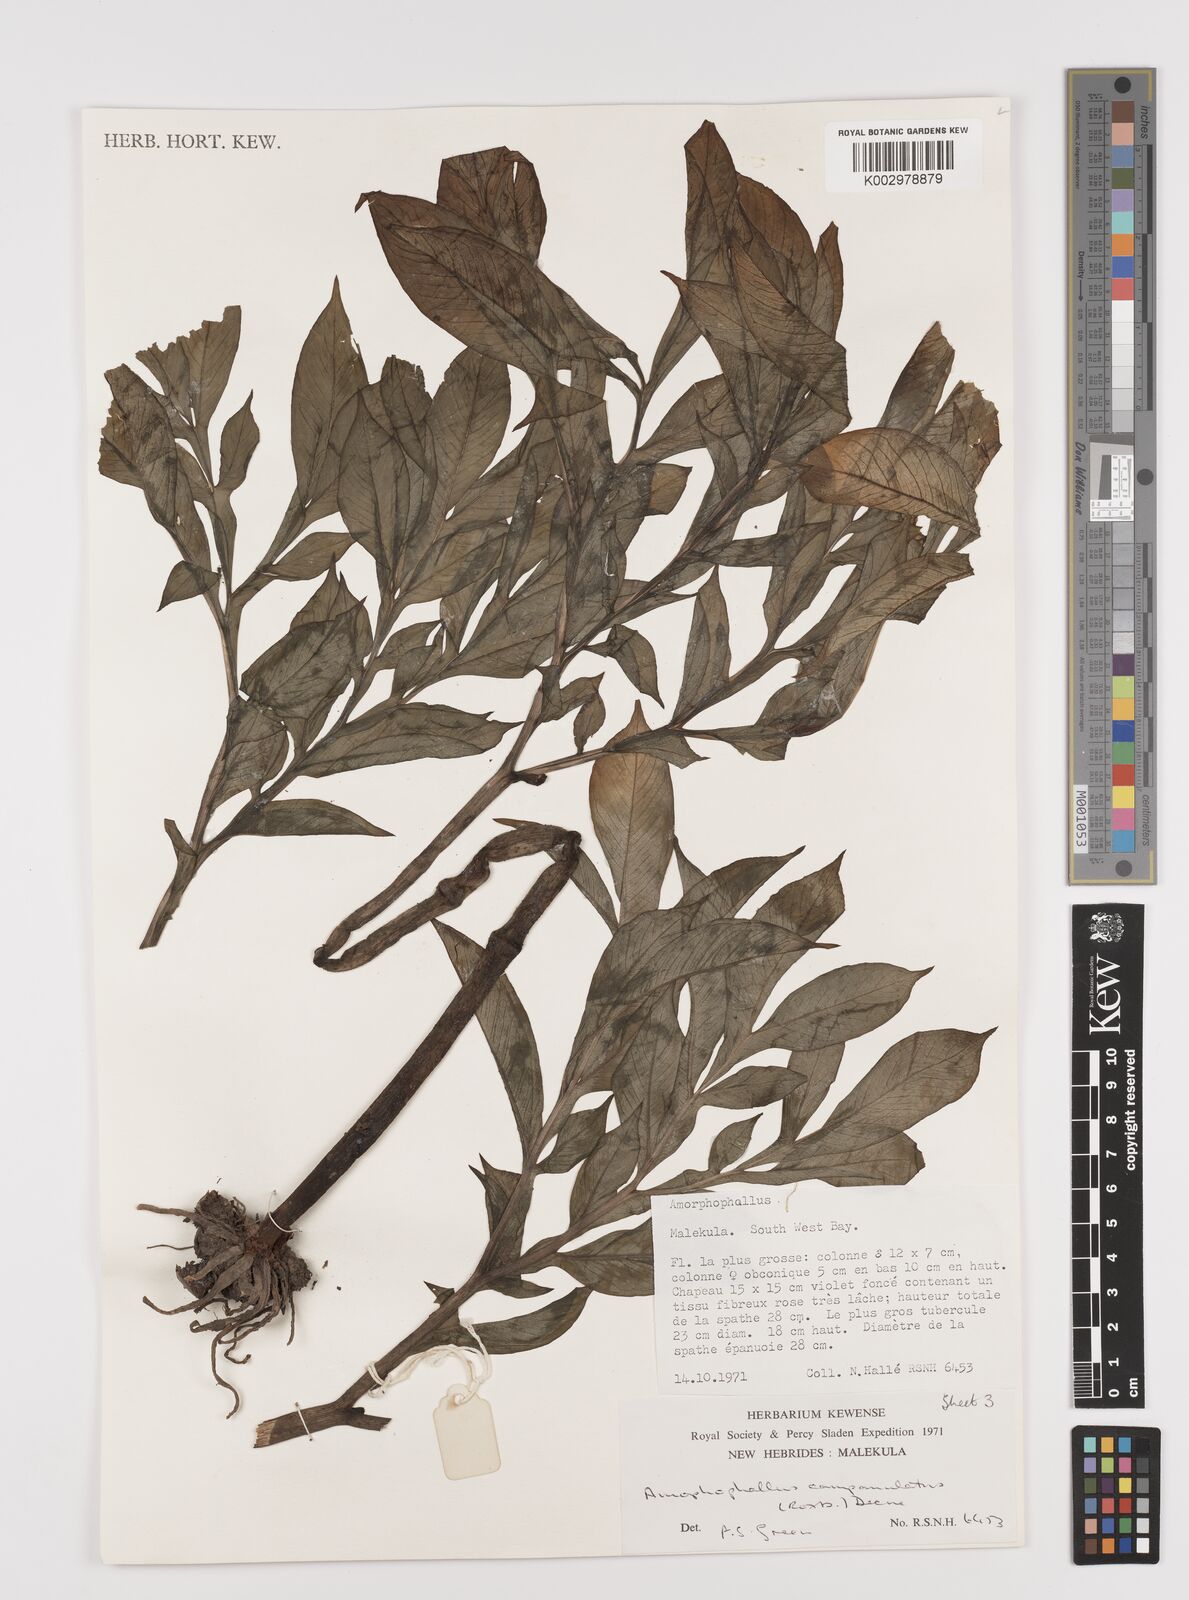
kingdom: Plantae
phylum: Tracheophyta
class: Liliopsida
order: Alismatales
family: Araceae
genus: Amorphophallus
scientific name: Amorphophallus paeoniifolius
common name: Telinga-potato
